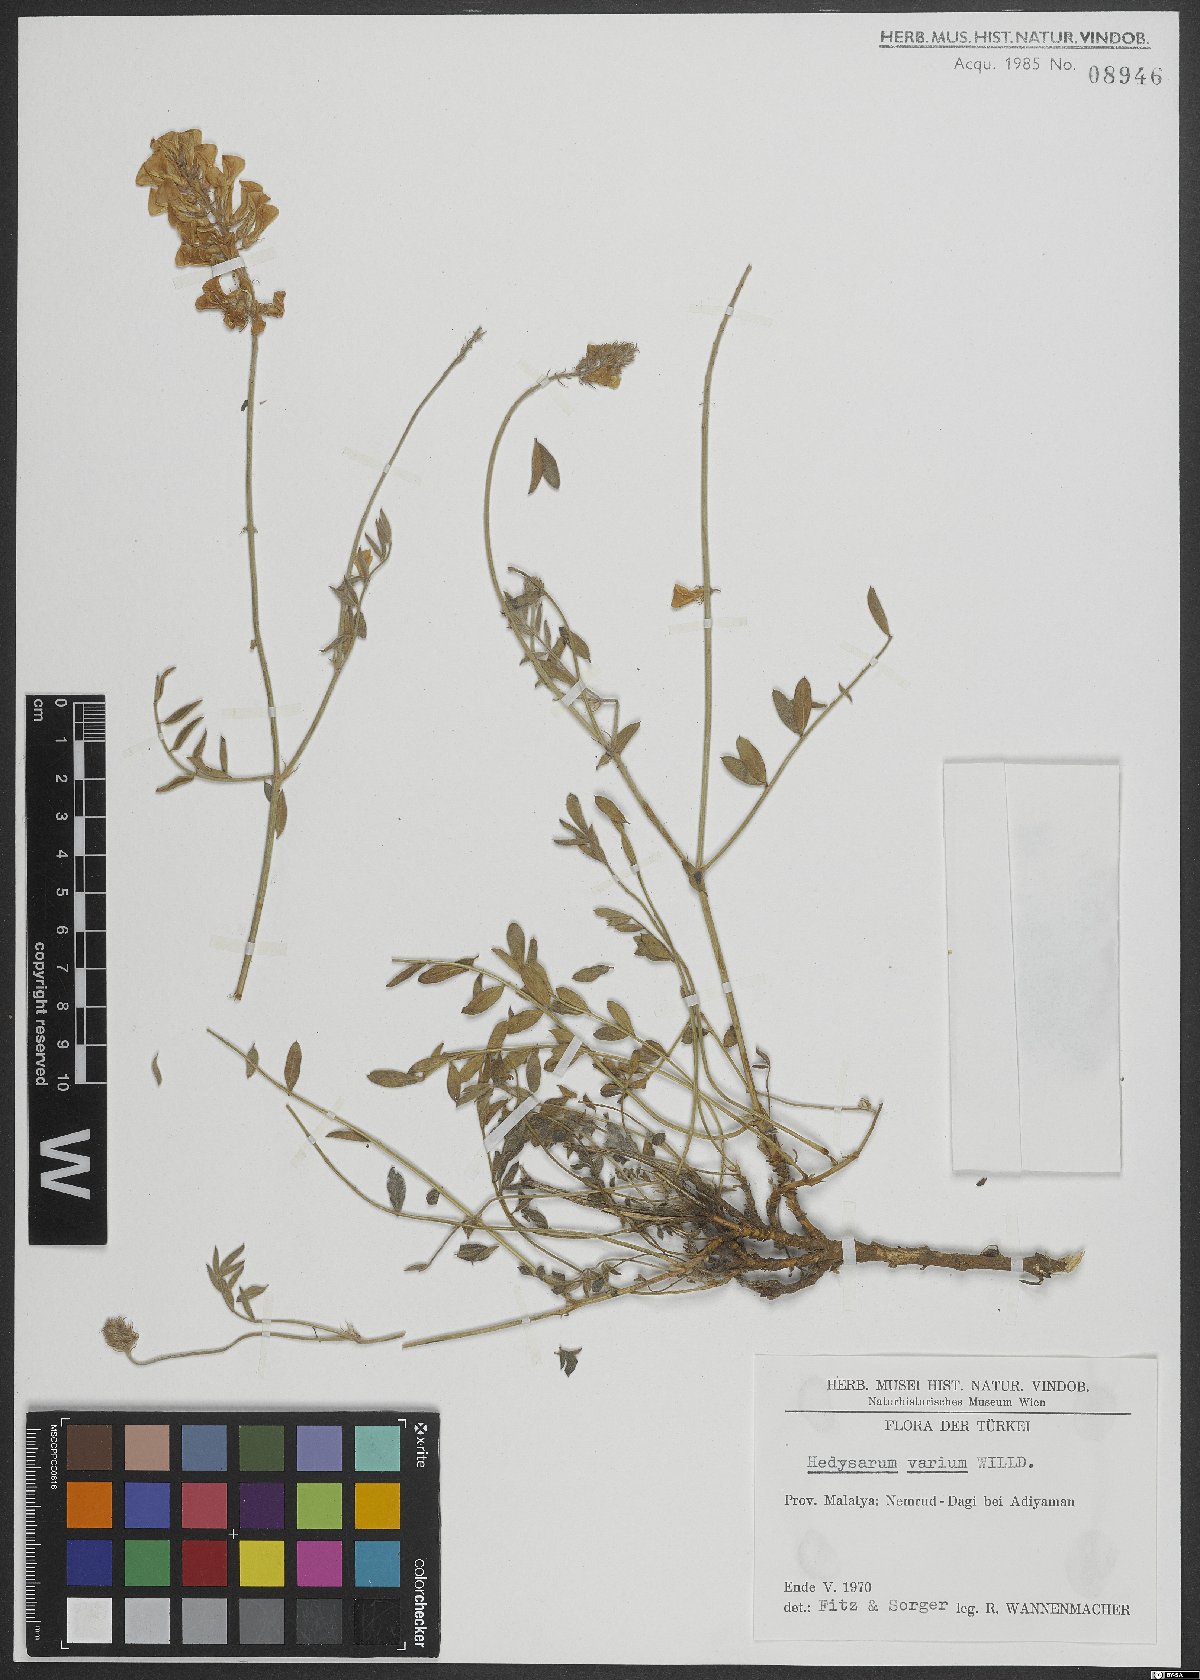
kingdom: Plantae
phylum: Tracheophyta
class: Magnoliopsida
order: Fabales
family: Fabaceae
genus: Hedysarum
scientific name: Hedysarum varium
